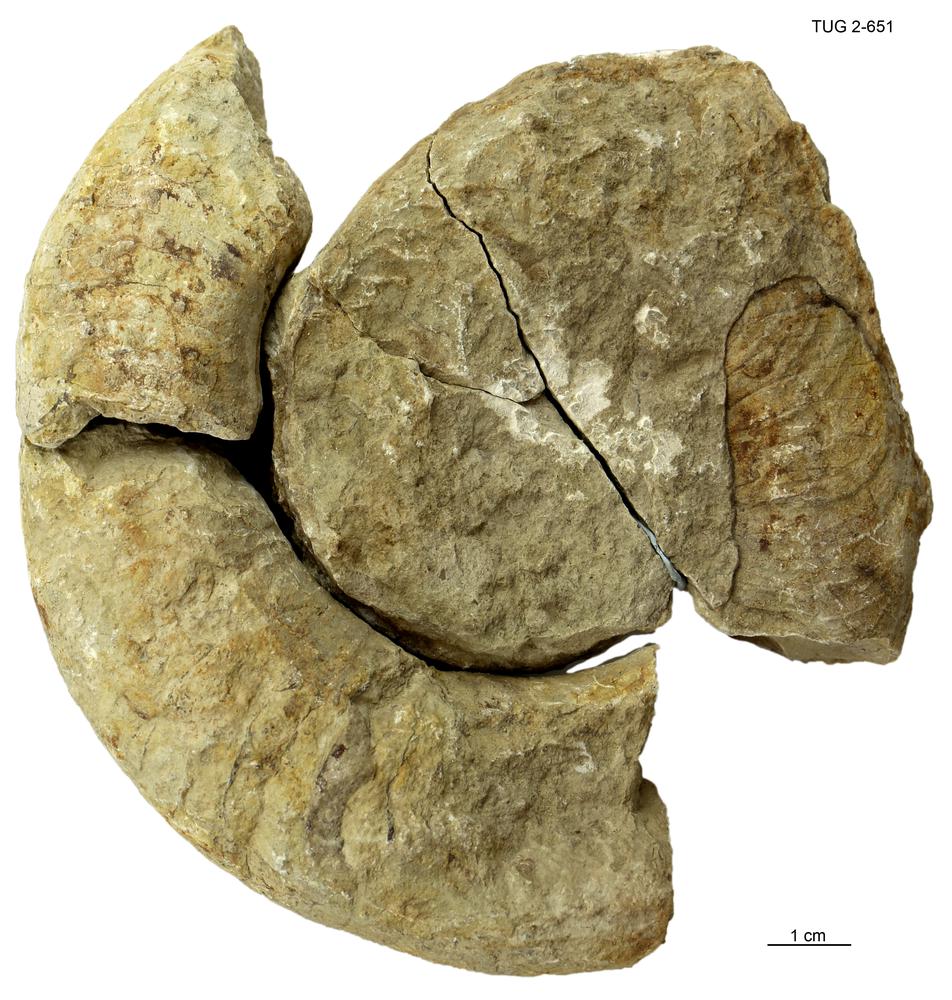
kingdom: Animalia
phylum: Mollusca
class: Cephalopoda
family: Trocholitidae
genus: Schroederoceras
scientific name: Schroederoceras
